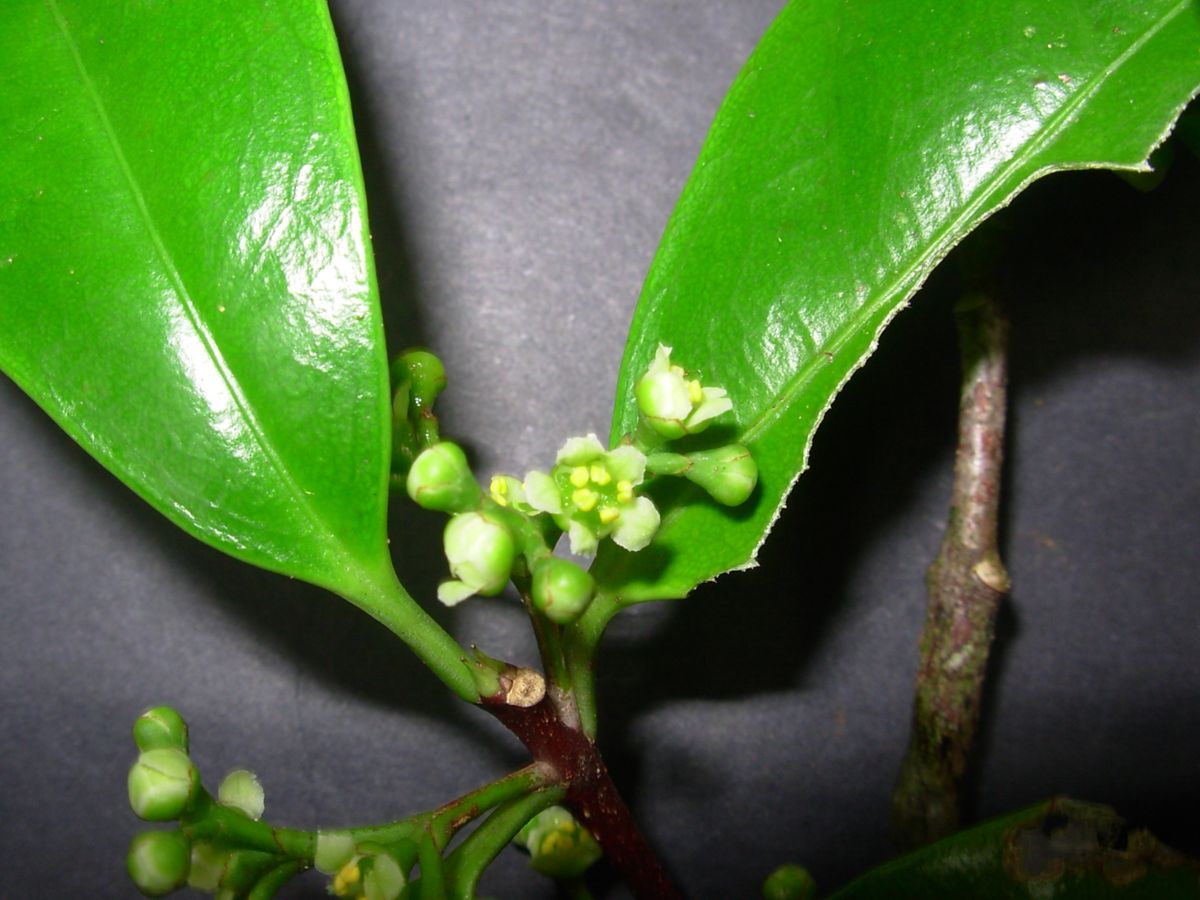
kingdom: Plantae
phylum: Tracheophyta
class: Magnoliopsida
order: Celastrales
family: Celastraceae
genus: Quetzalia
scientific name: Quetzalia ilicina
